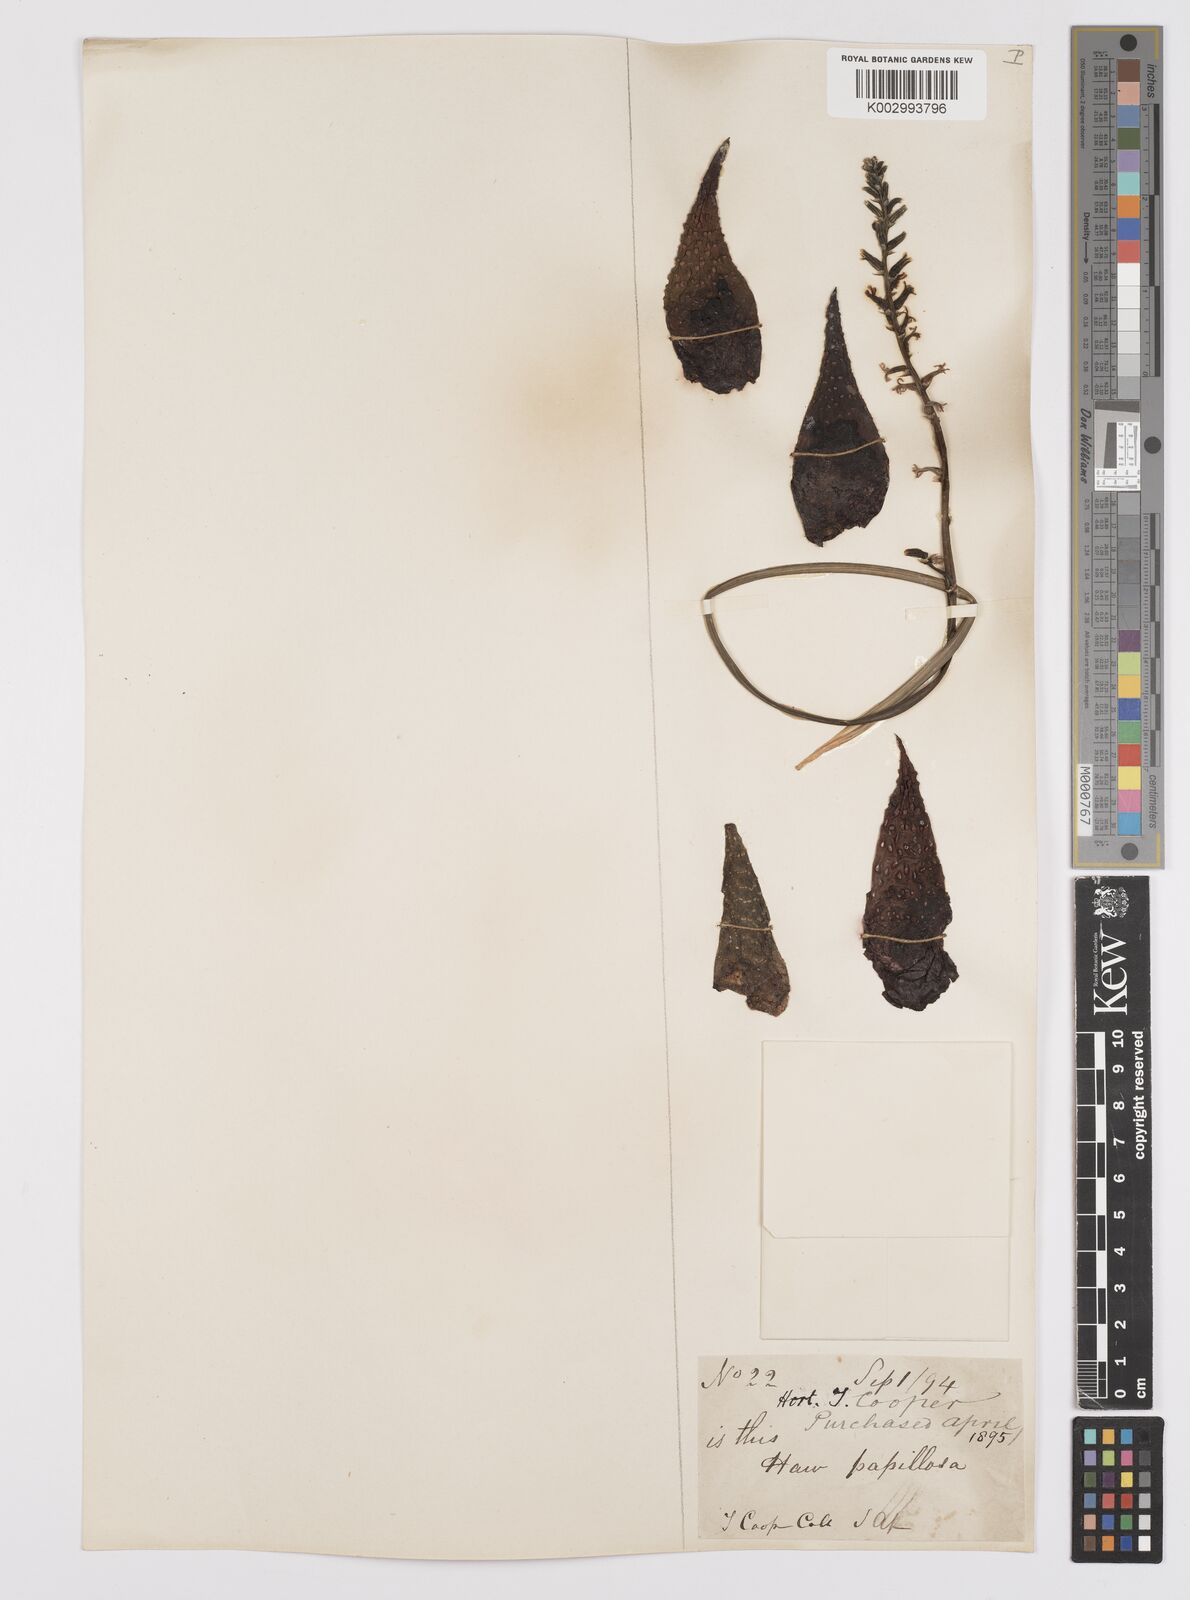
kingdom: Plantae
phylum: Tracheophyta
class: Liliopsida
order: Asparagales
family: Asphodelaceae
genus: Haworthia
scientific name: Haworthia herbacea
